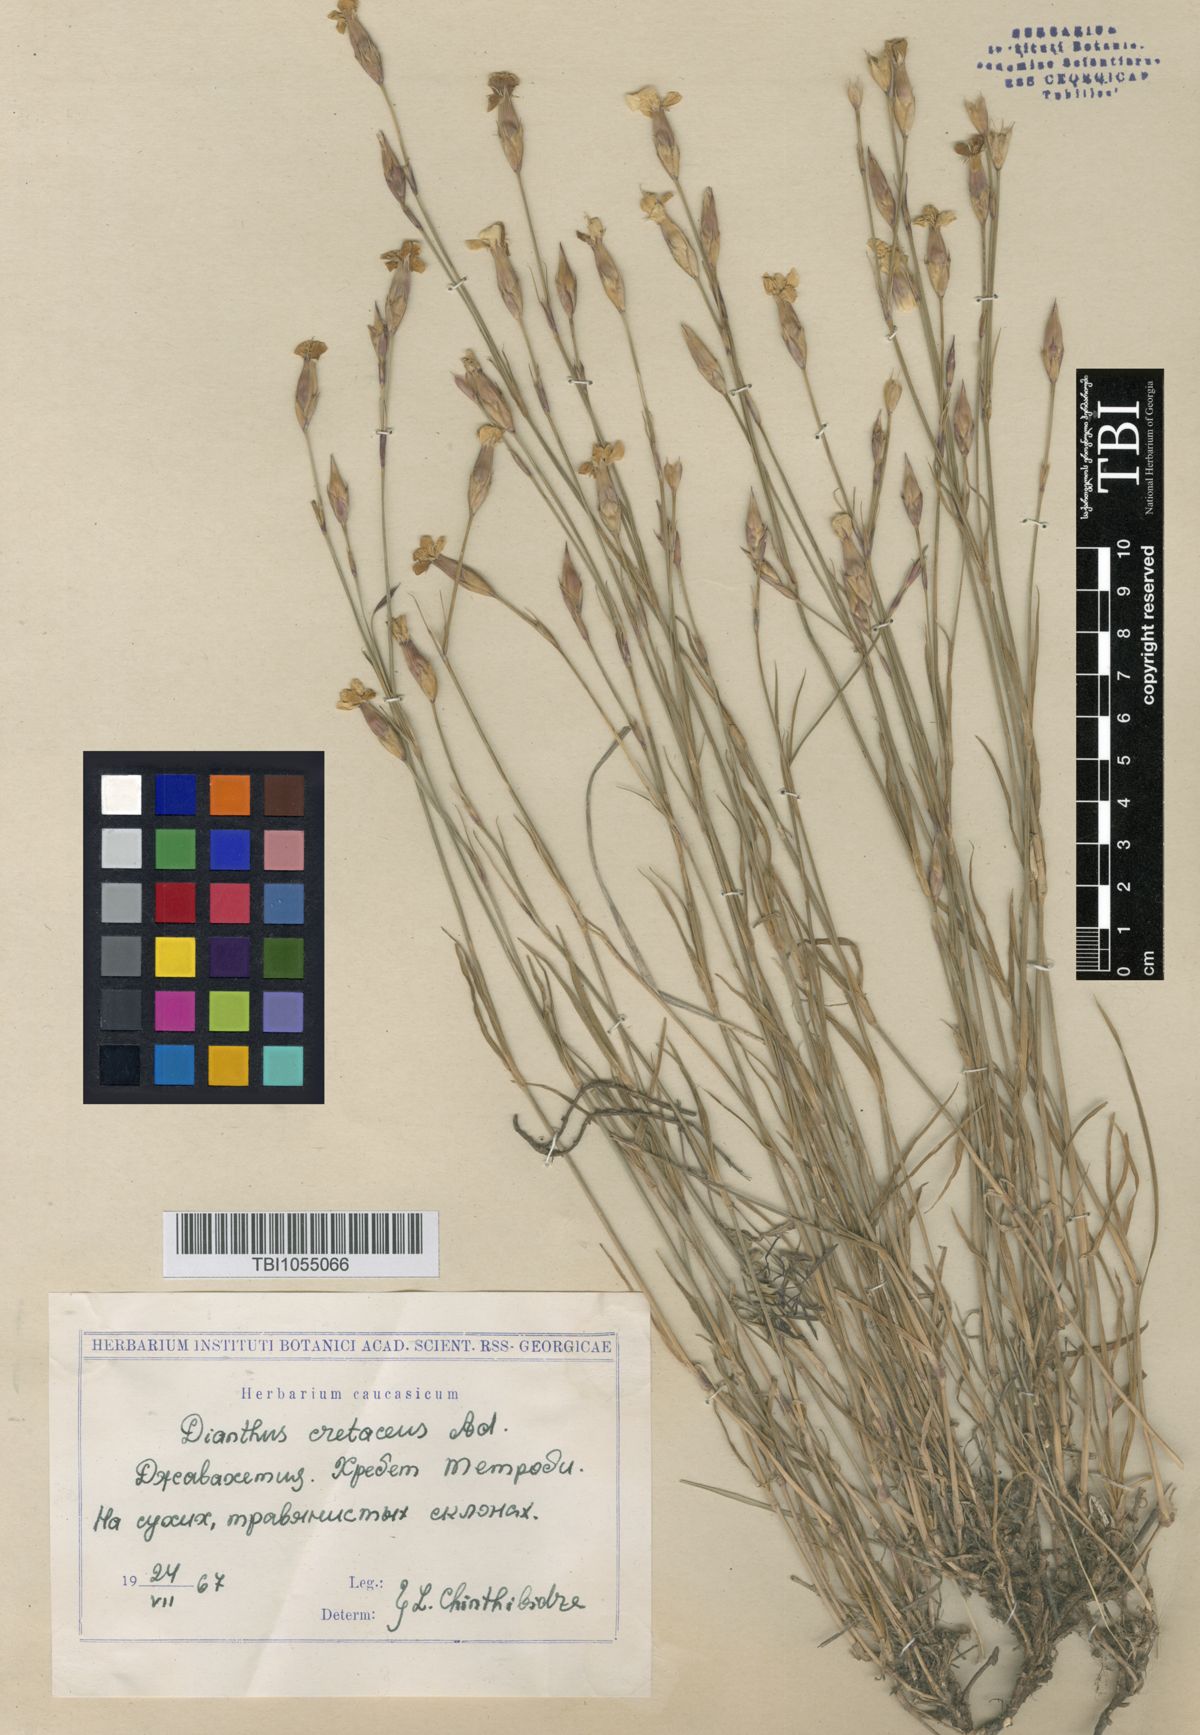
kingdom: Plantae
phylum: Tracheophyta
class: Magnoliopsida
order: Caryophyllales
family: Caryophyllaceae
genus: Dianthus
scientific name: Dianthus cretaceus
